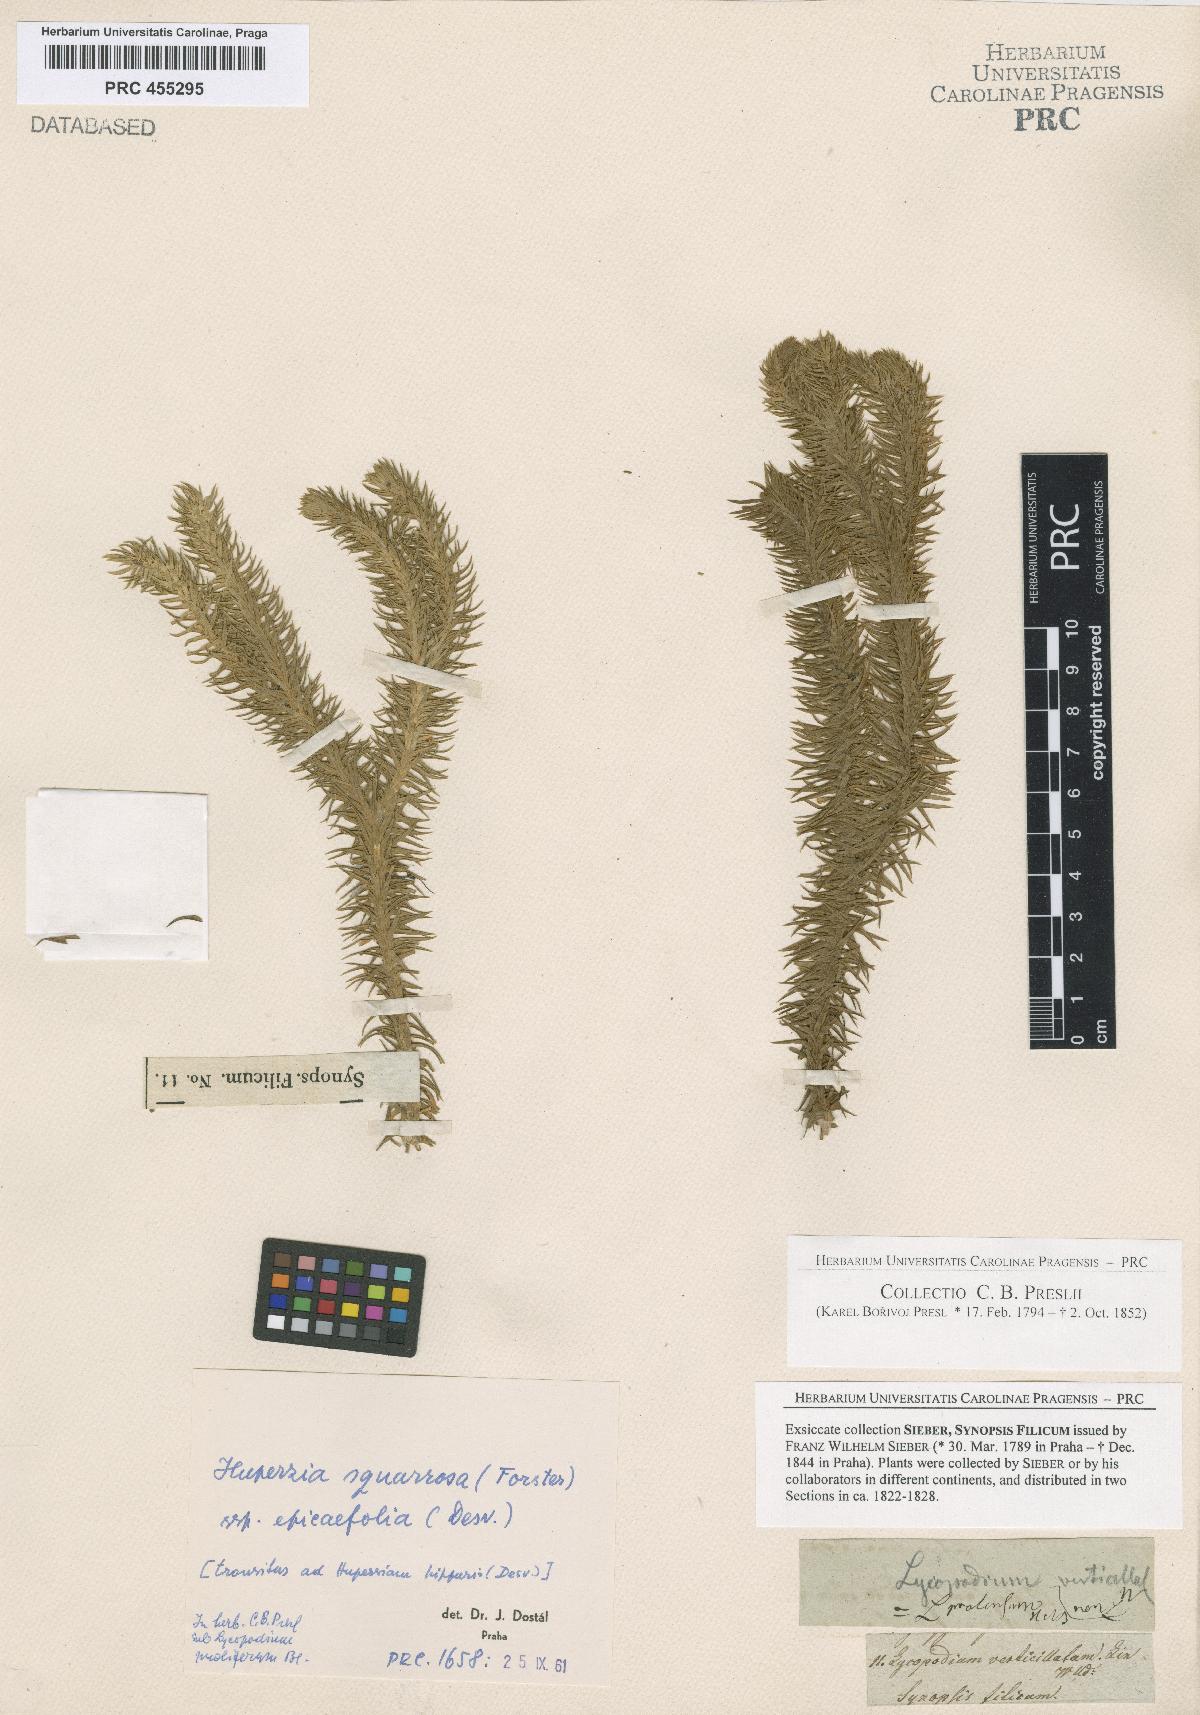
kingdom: Plantae
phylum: Tracheophyta
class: Lycopodiopsida
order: Lycopodiales
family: Lycopodiaceae
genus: Phlegmariurus
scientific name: Phlegmariurus squarrosus
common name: Rock tassel-fern
